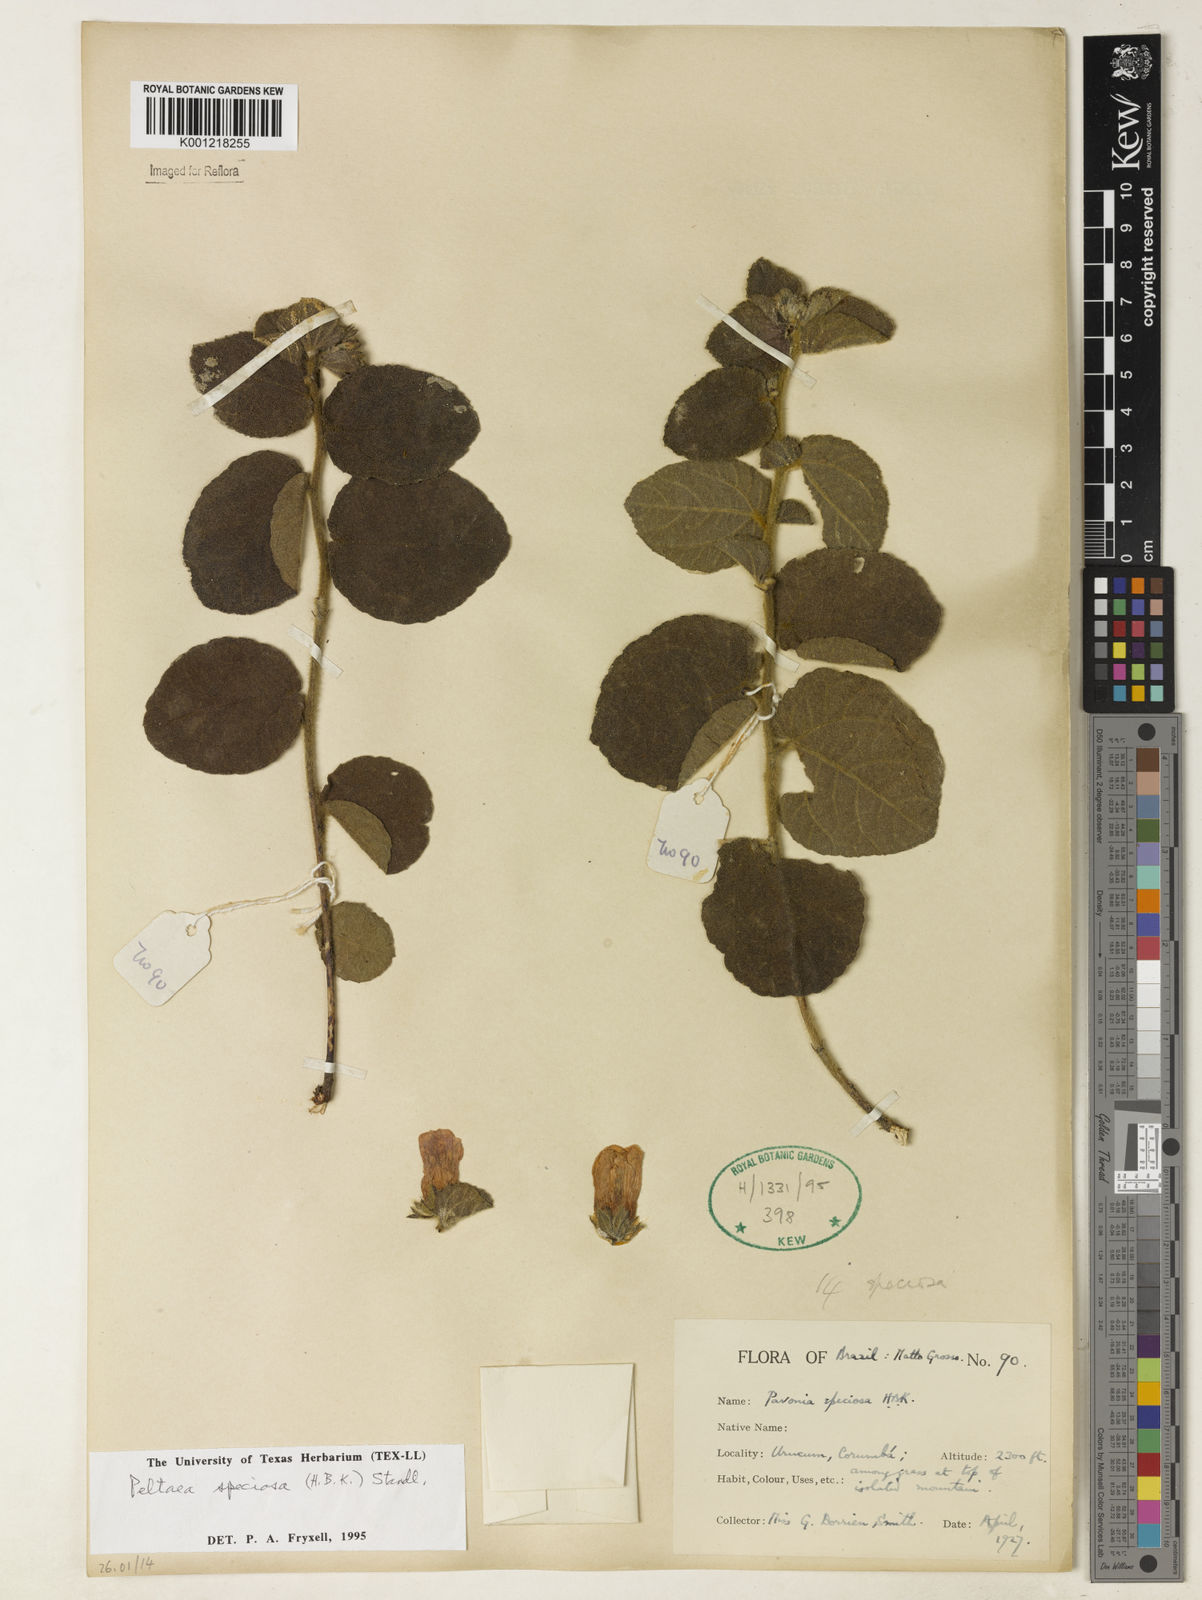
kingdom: Plantae
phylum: Tracheophyta
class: Magnoliopsida
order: Malvales
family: Malvaceae
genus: Peltaea
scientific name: Peltaea speciosa
